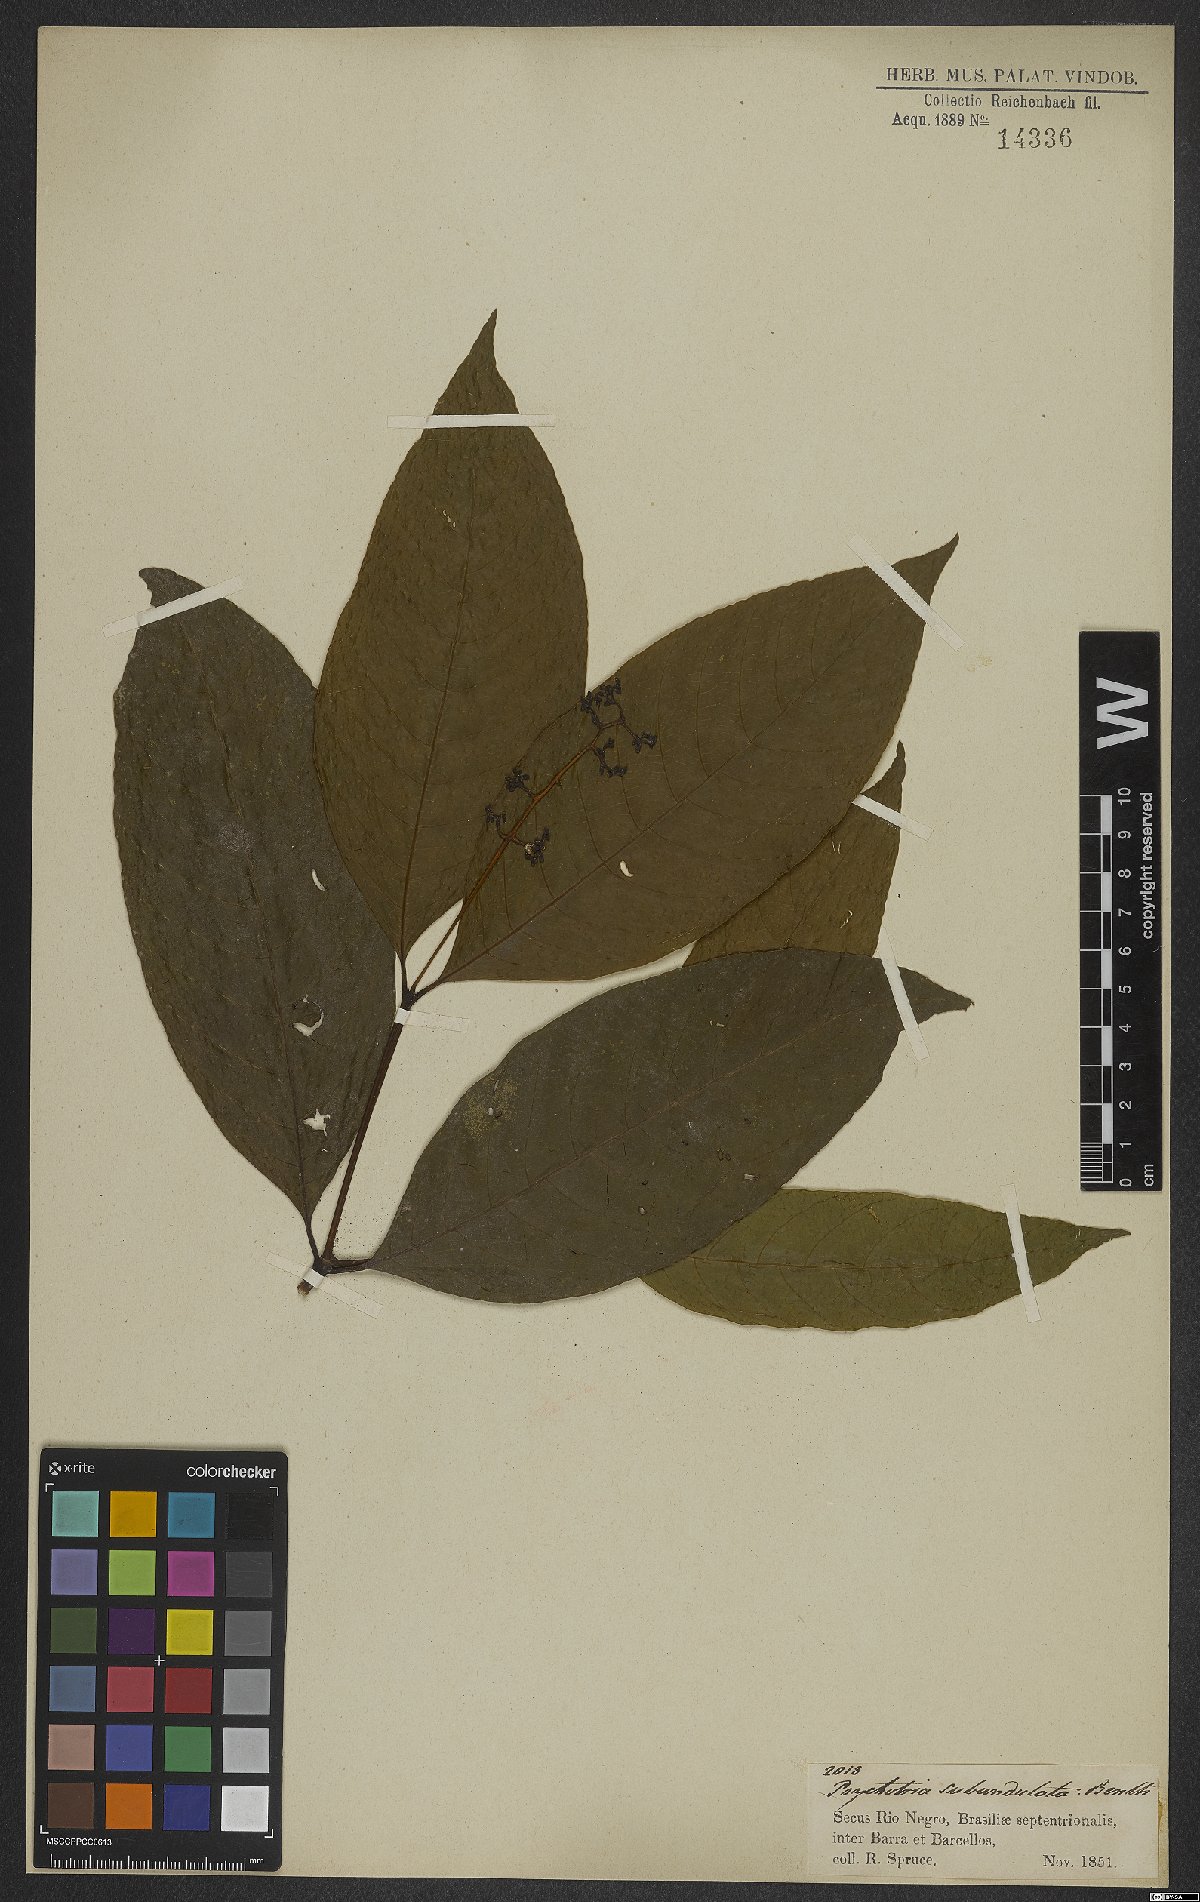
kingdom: Plantae
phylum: Tracheophyta
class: Magnoliopsida
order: Gentianales
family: Rubiaceae
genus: Palicourea
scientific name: Palicourea subundulata
